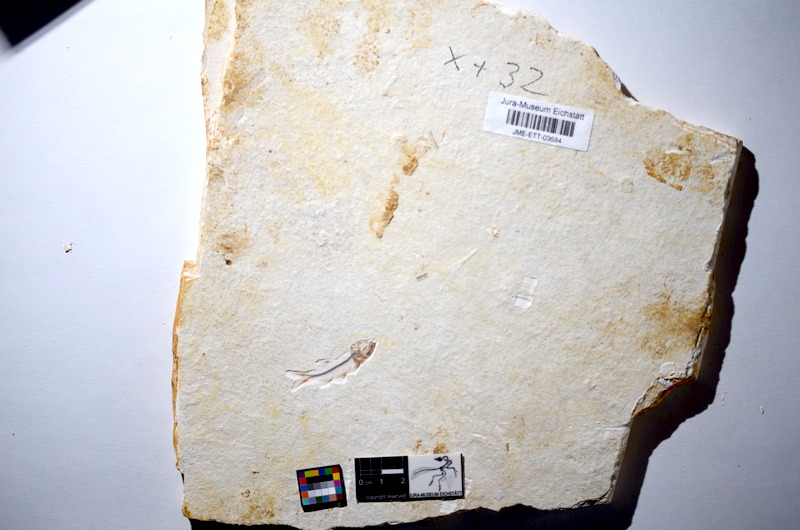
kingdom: Animalia
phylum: Chordata
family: Ascalaboidae
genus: Ebertichthys
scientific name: Ebertichthys ettlingensis
